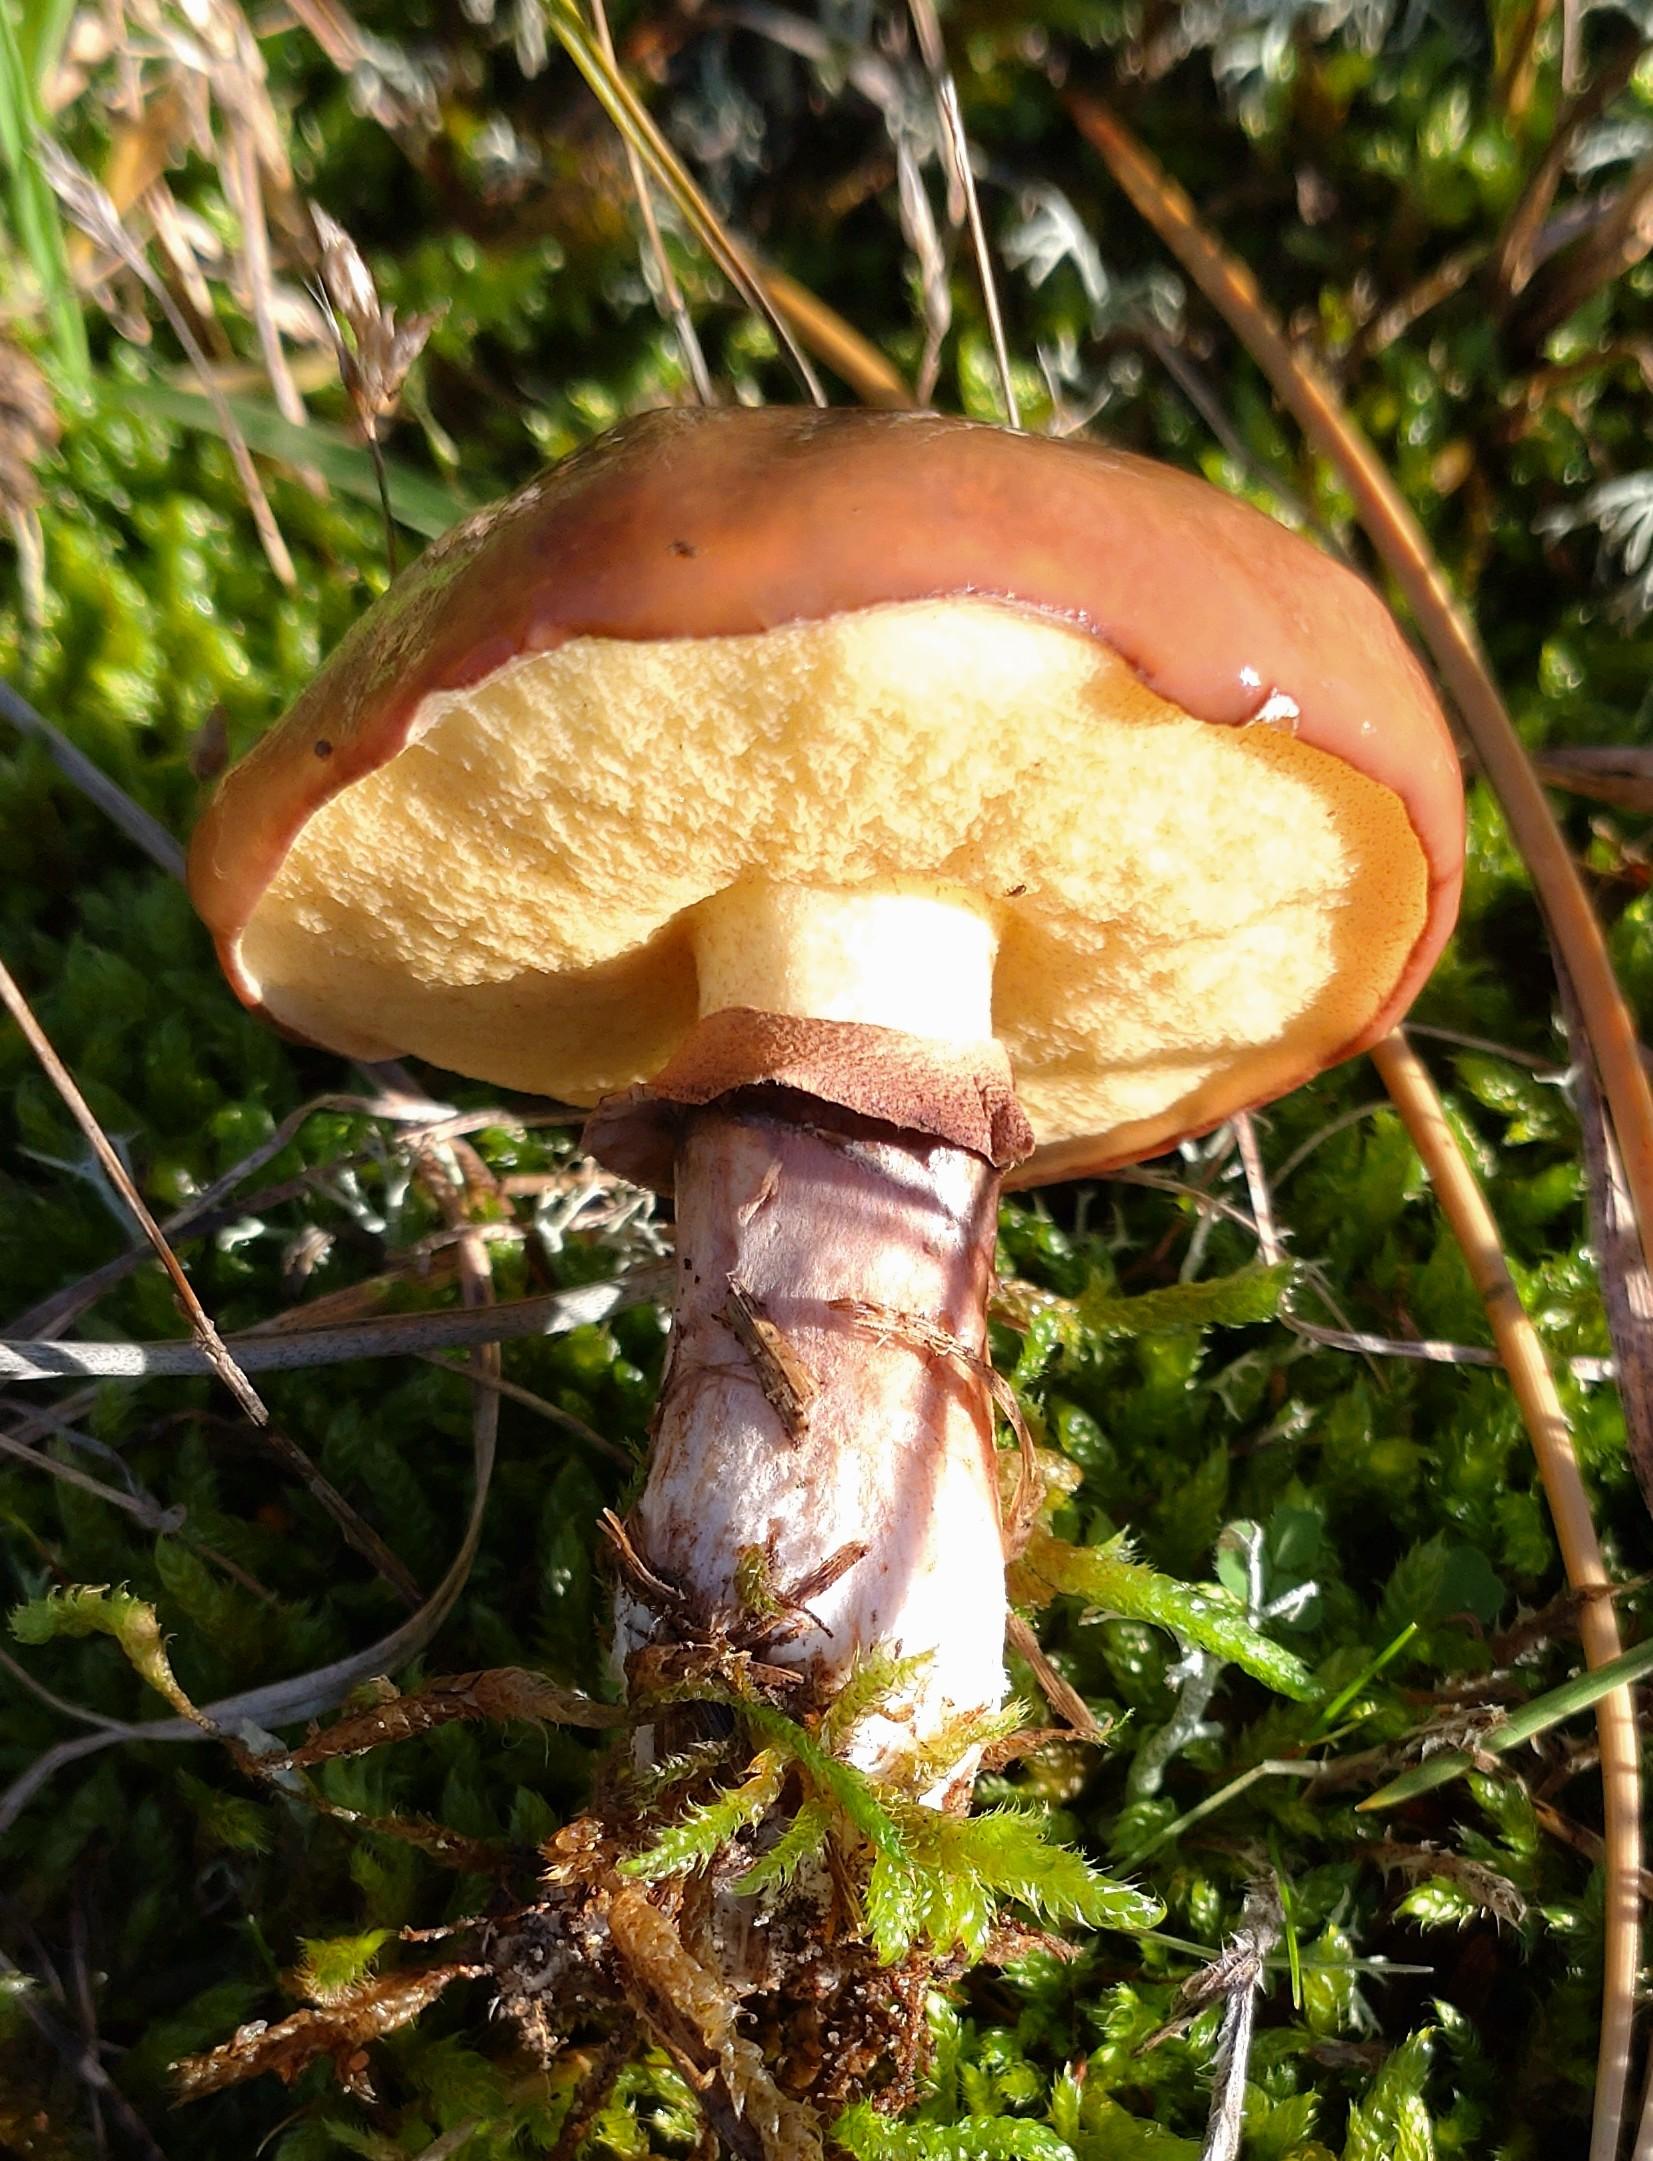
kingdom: Fungi
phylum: Basidiomycota
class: Agaricomycetes
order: Boletales
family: Suillaceae
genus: Suillus
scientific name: Suillus luteus
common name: brungul slimrørhat
